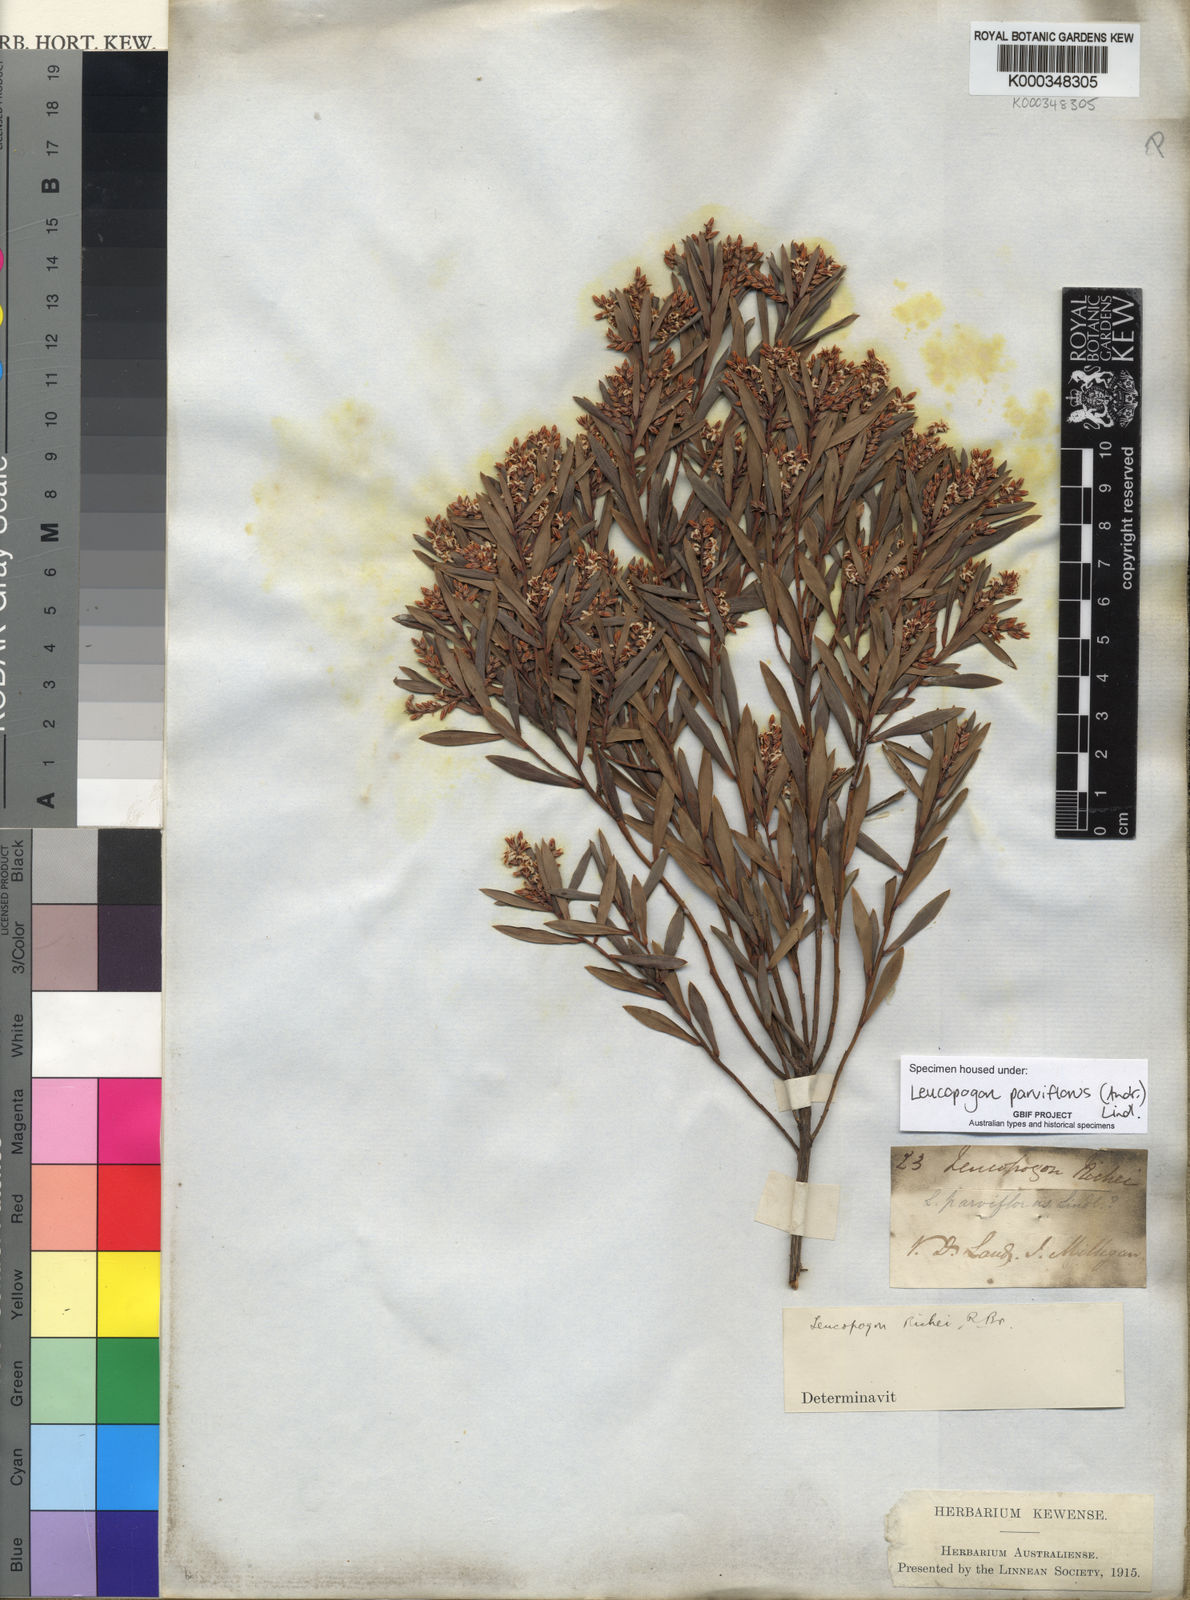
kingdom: Plantae
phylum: Tracheophyta
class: Magnoliopsida
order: Ericales
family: Ericaceae
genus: Leptecophylla
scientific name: Leptecophylla parvifolia
